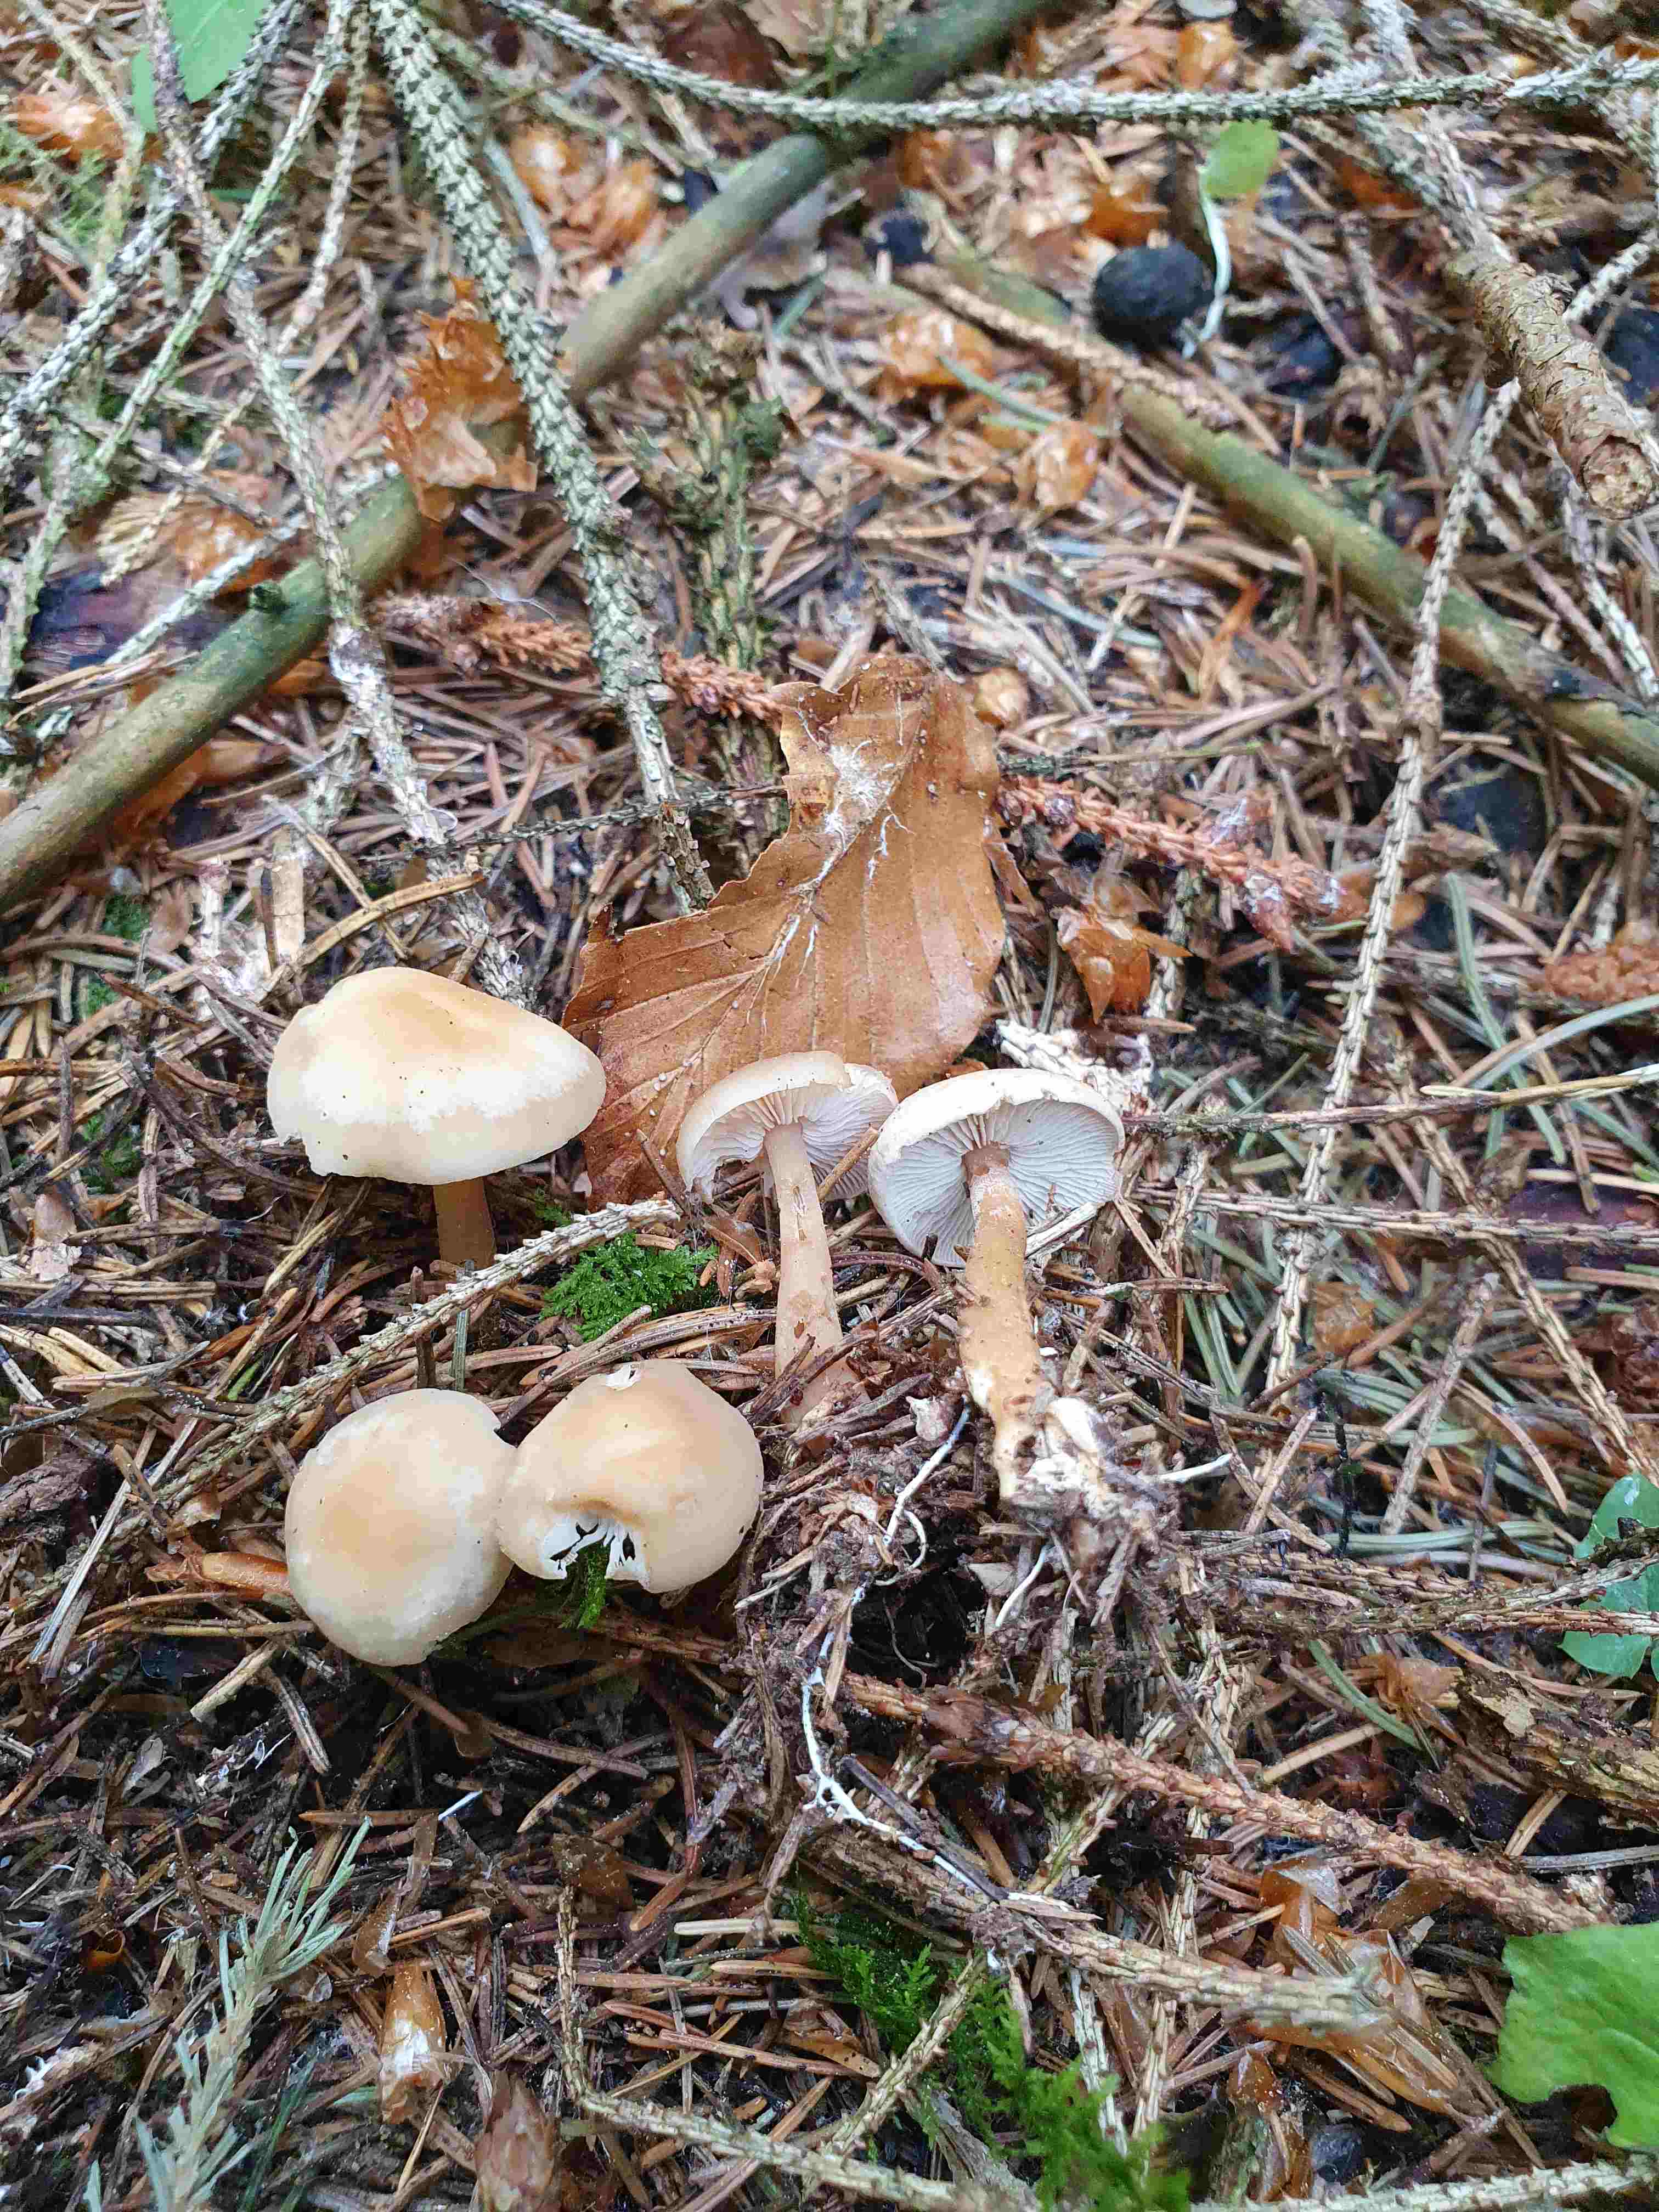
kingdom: Fungi
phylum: Basidiomycota
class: Agaricomycetes
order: Agaricales
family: Omphalotaceae
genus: Gymnopus
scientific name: Gymnopus
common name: fladhat
